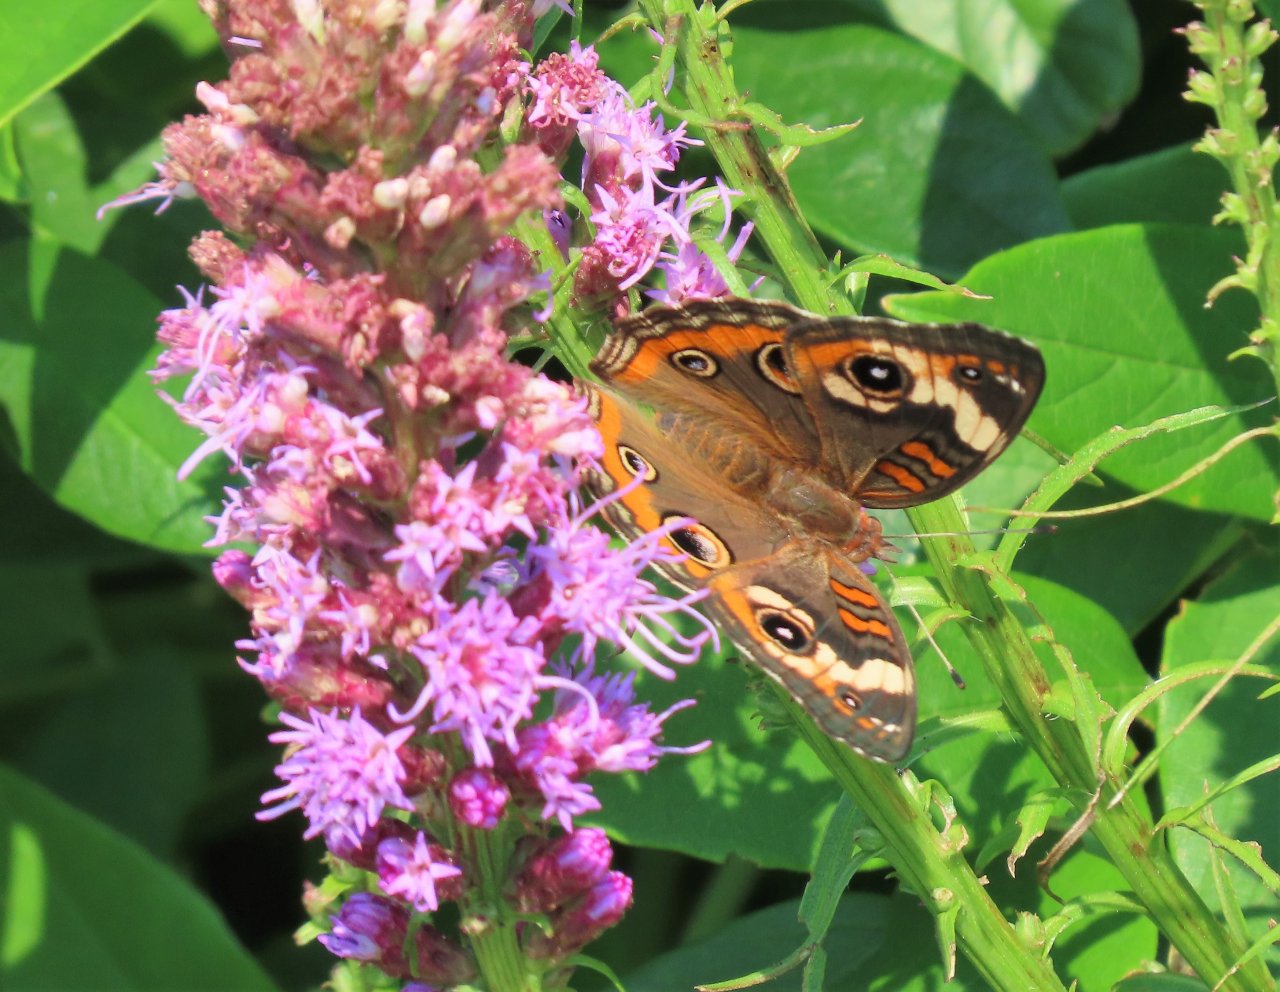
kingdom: Animalia
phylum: Arthropoda
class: Insecta
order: Lepidoptera
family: Nymphalidae
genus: Junonia
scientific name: Junonia coenia
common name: Common Buckeye
